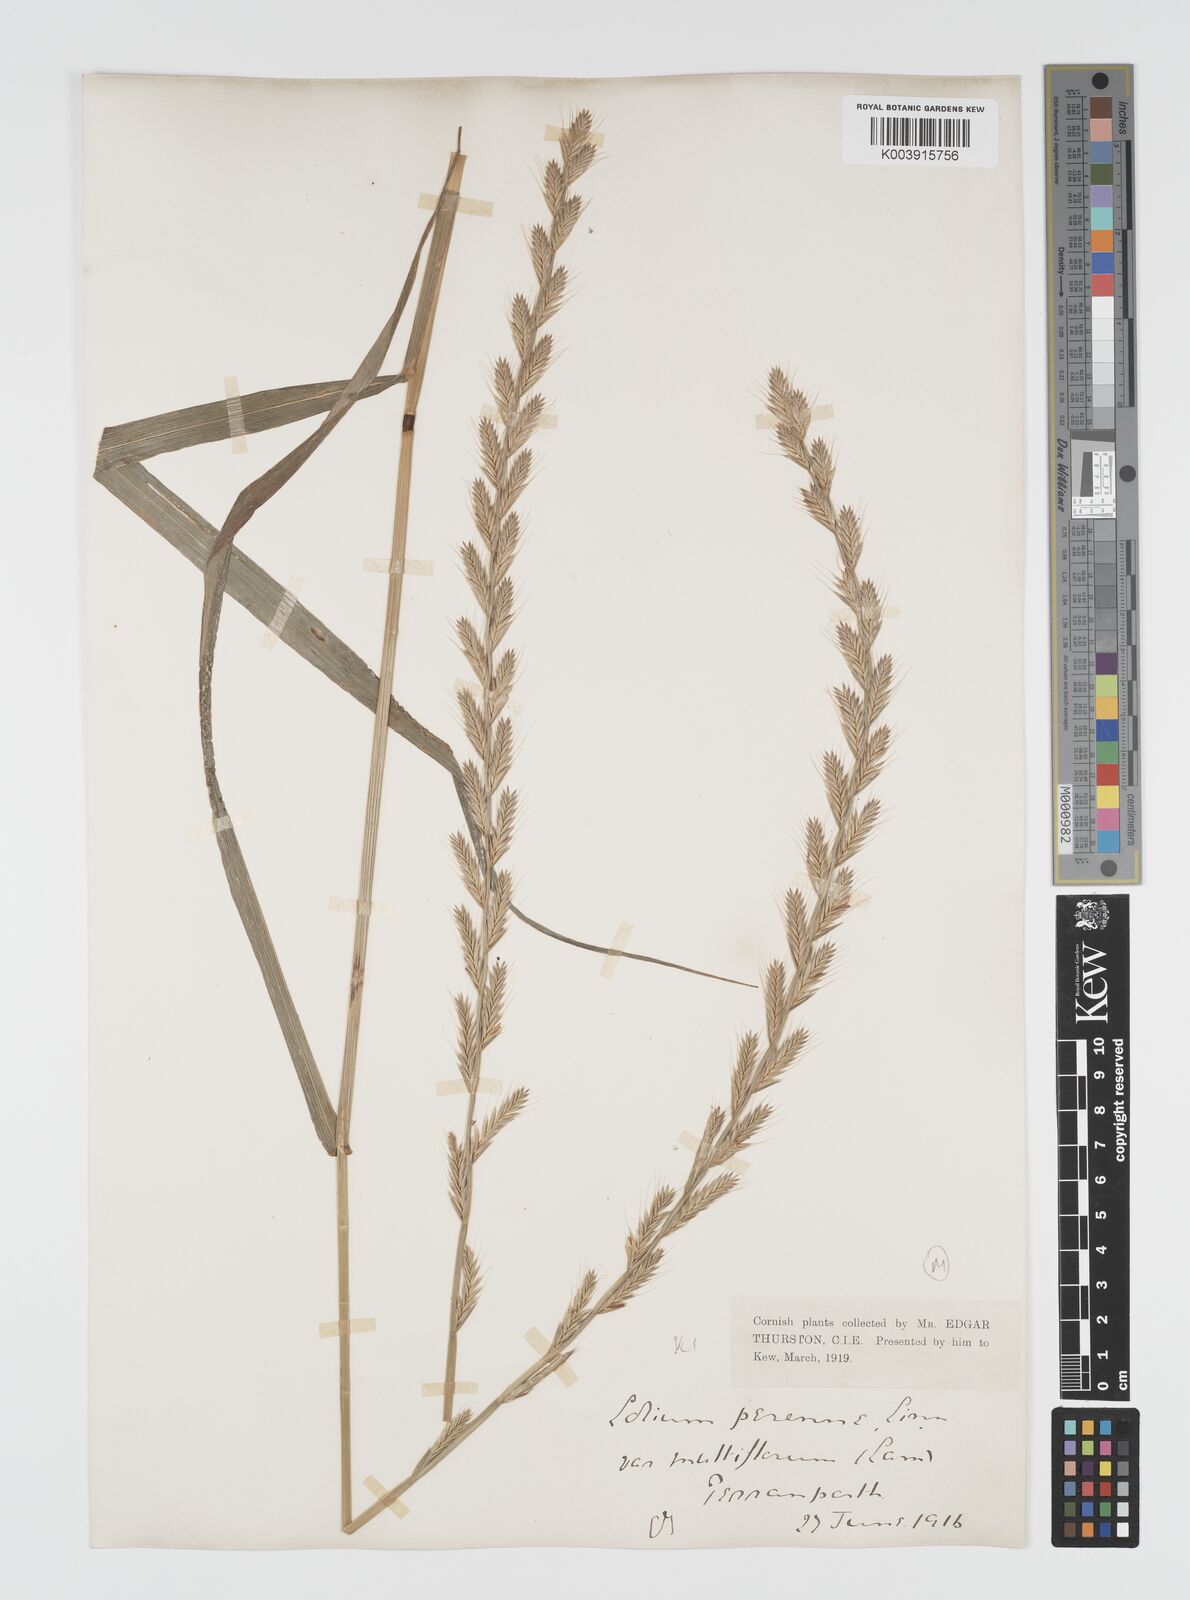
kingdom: Plantae
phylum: Tracheophyta
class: Liliopsida
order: Poales
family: Poaceae
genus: Lolium
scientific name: Lolium multiflorum
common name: Annual ryegrass
